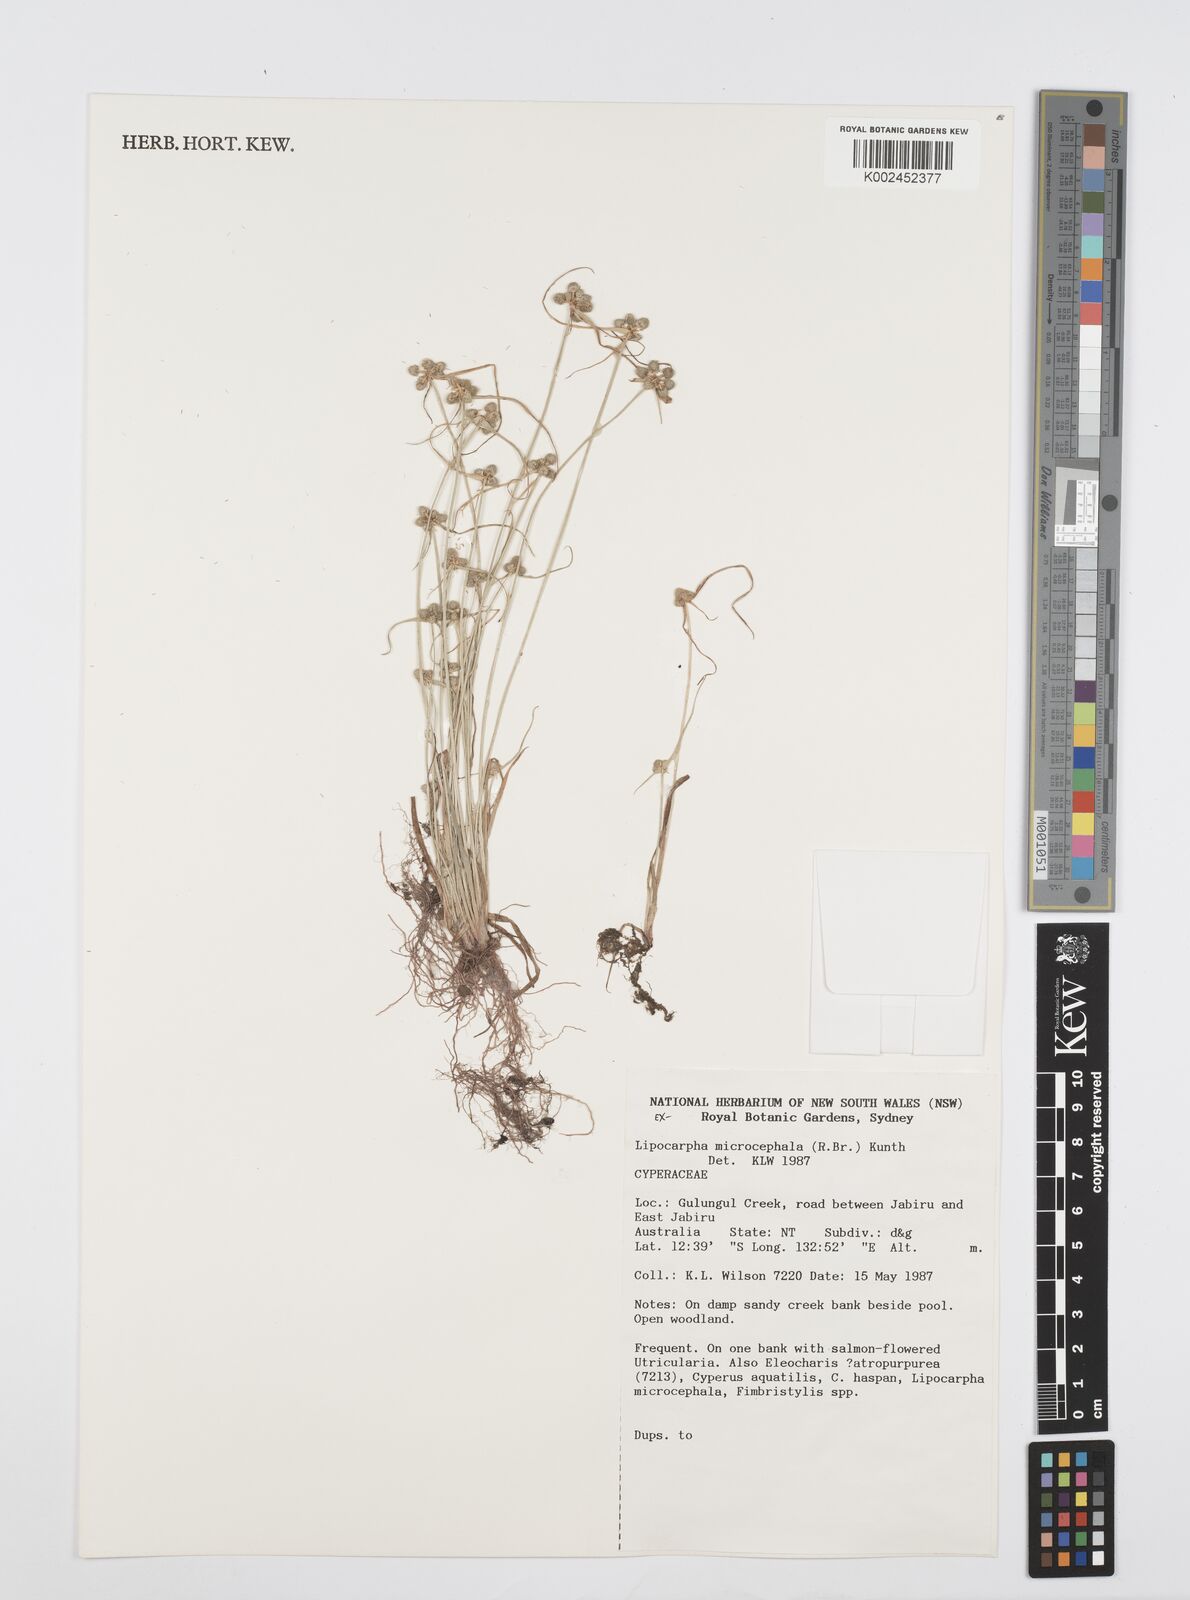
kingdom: Plantae
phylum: Tracheophyta
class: Liliopsida
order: Poales
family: Cyperaceae
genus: Cyperus
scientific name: Cyperus microcephalus
